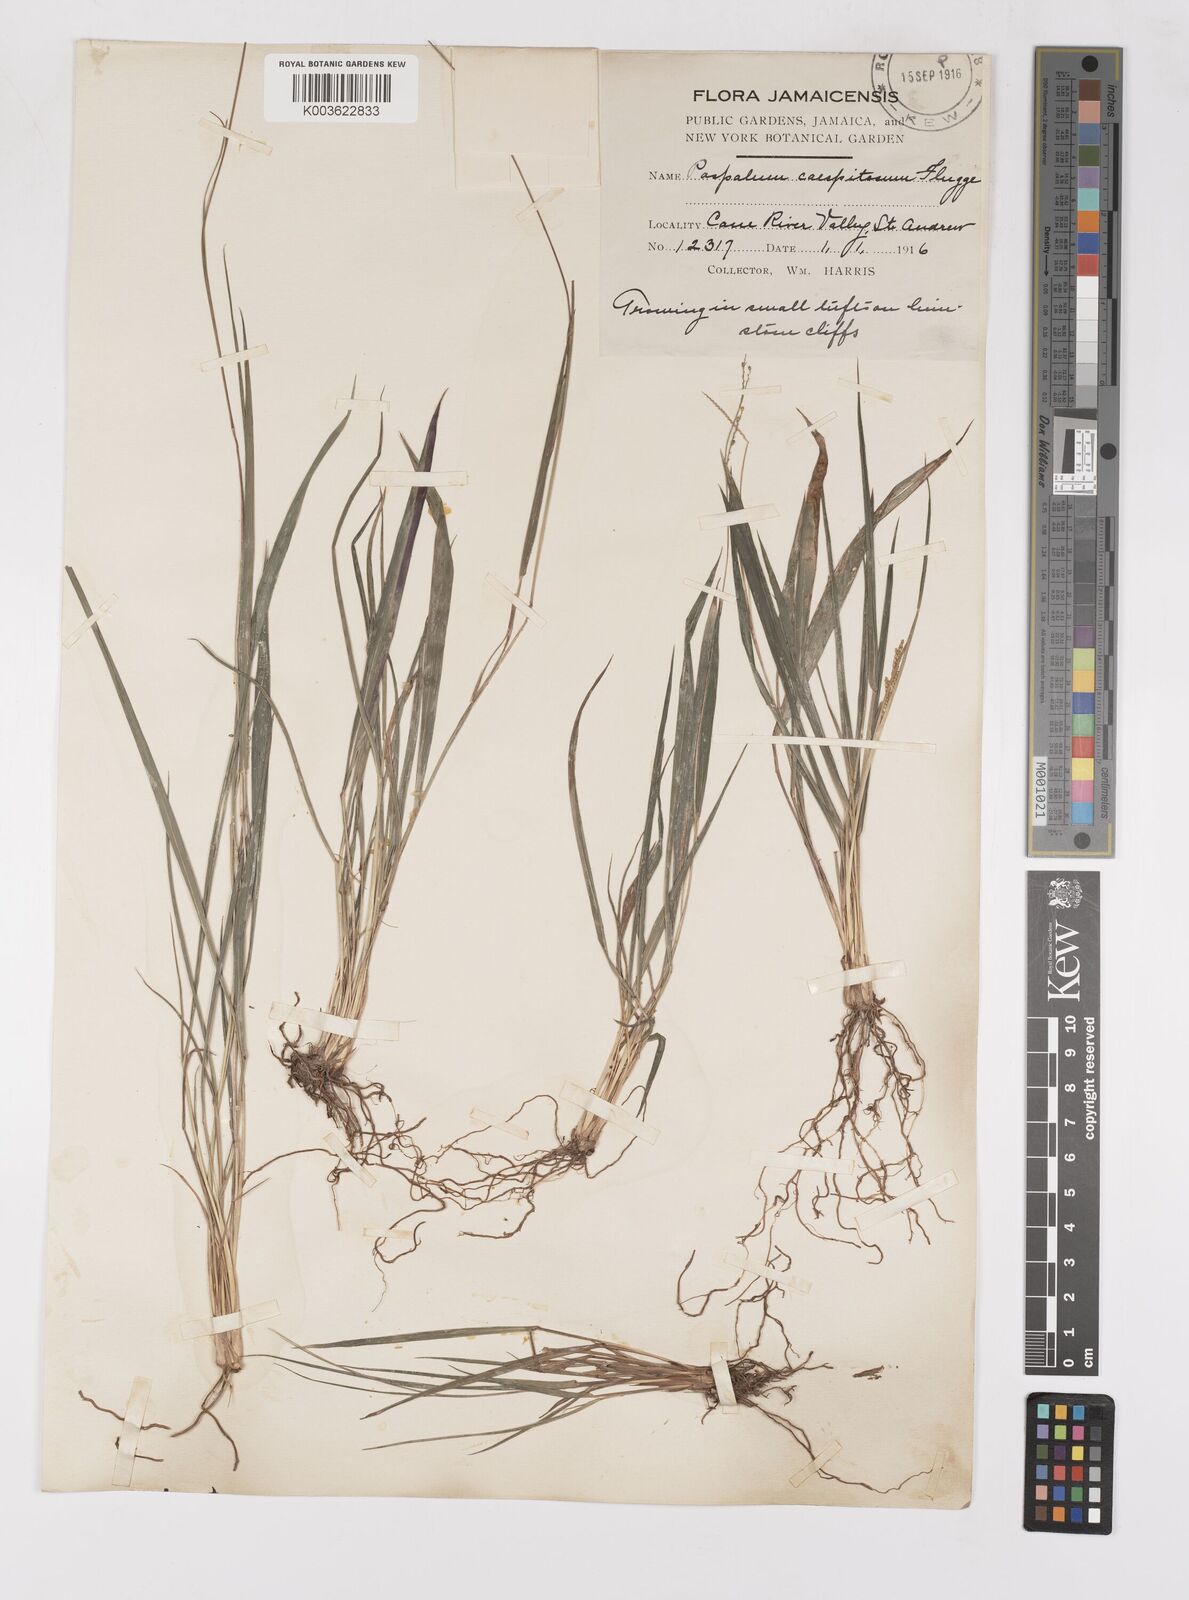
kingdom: Plantae
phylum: Tracheophyta
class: Liliopsida
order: Poales
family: Poaceae
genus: Paspalum
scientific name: Paspalum caespitosum
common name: Blue crowngrass
